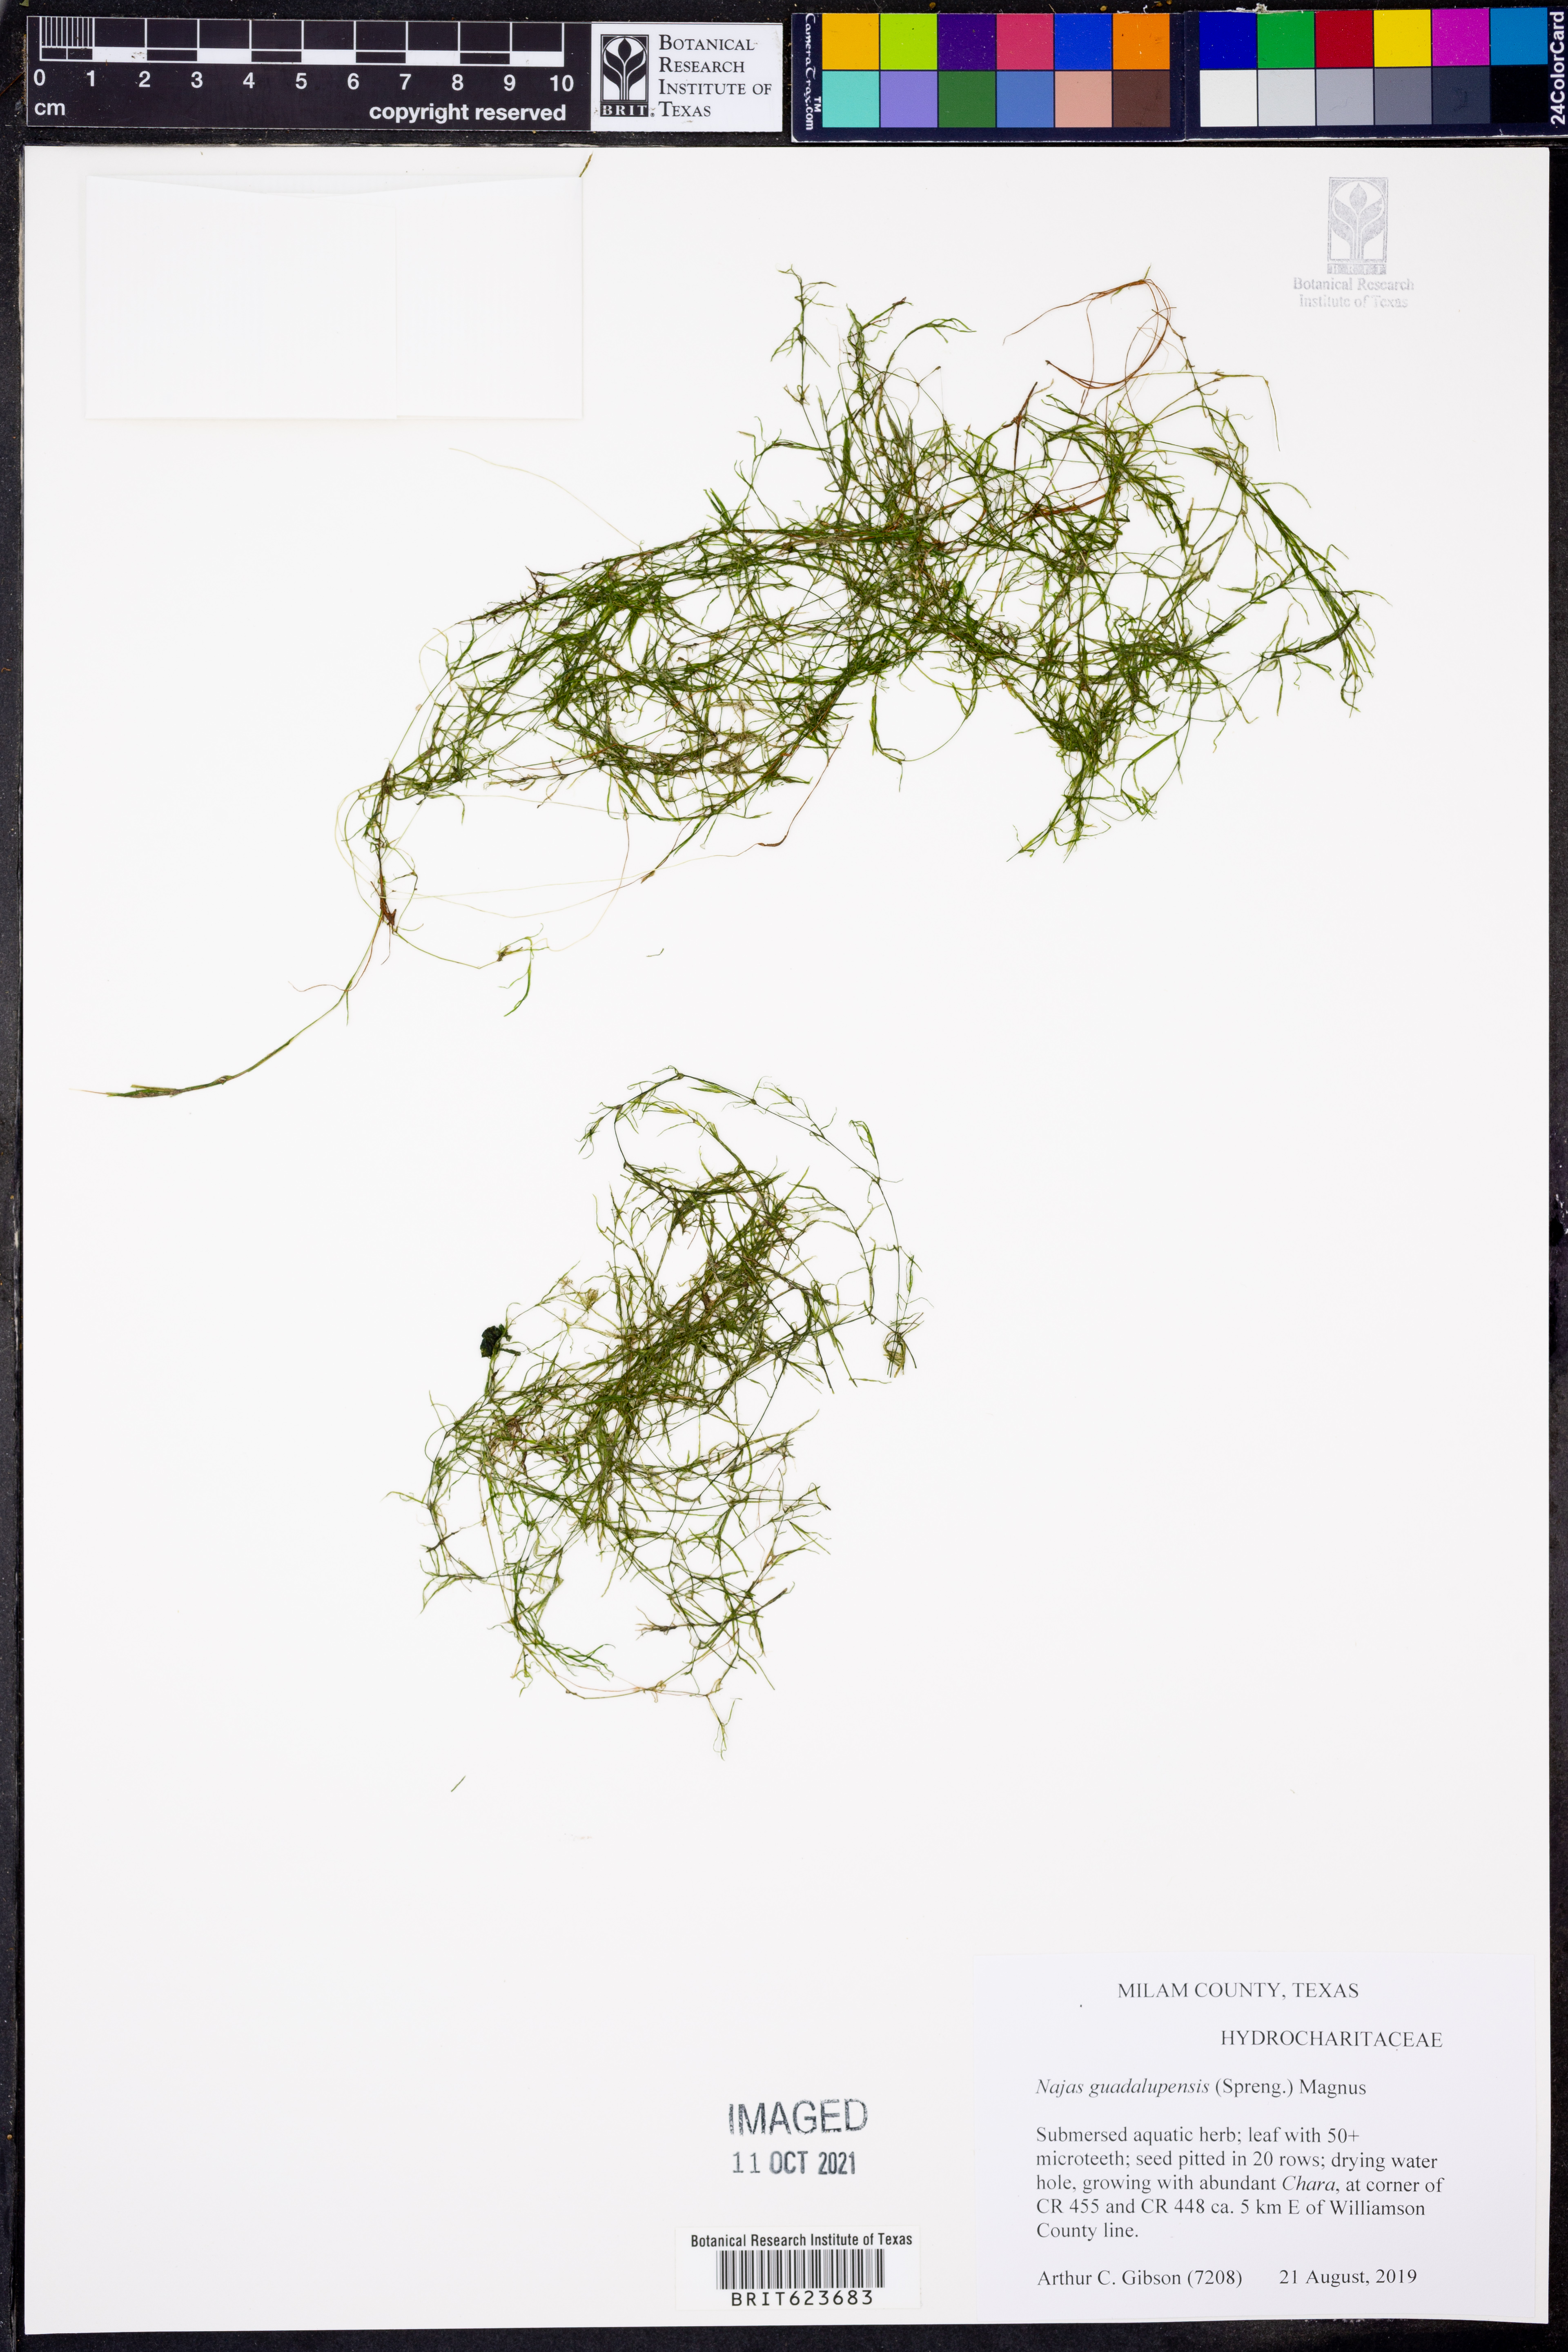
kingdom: Plantae
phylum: Tracheophyta
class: Liliopsida
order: Alismatales
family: Hydrocharitaceae
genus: Najas
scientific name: Najas guadalupensis
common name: Southern naiad
